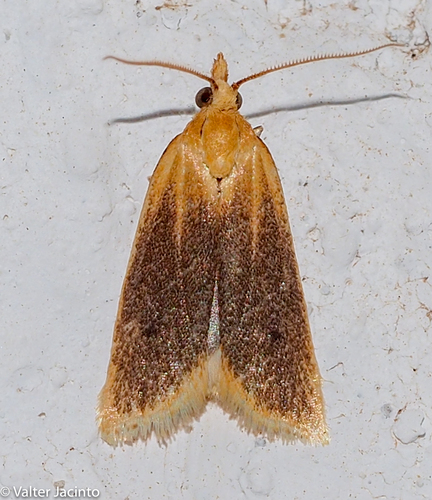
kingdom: Animalia
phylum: Arthropoda
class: Insecta
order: Lepidoptera
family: Tortricidae
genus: Avaria
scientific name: Avaria hyerana
